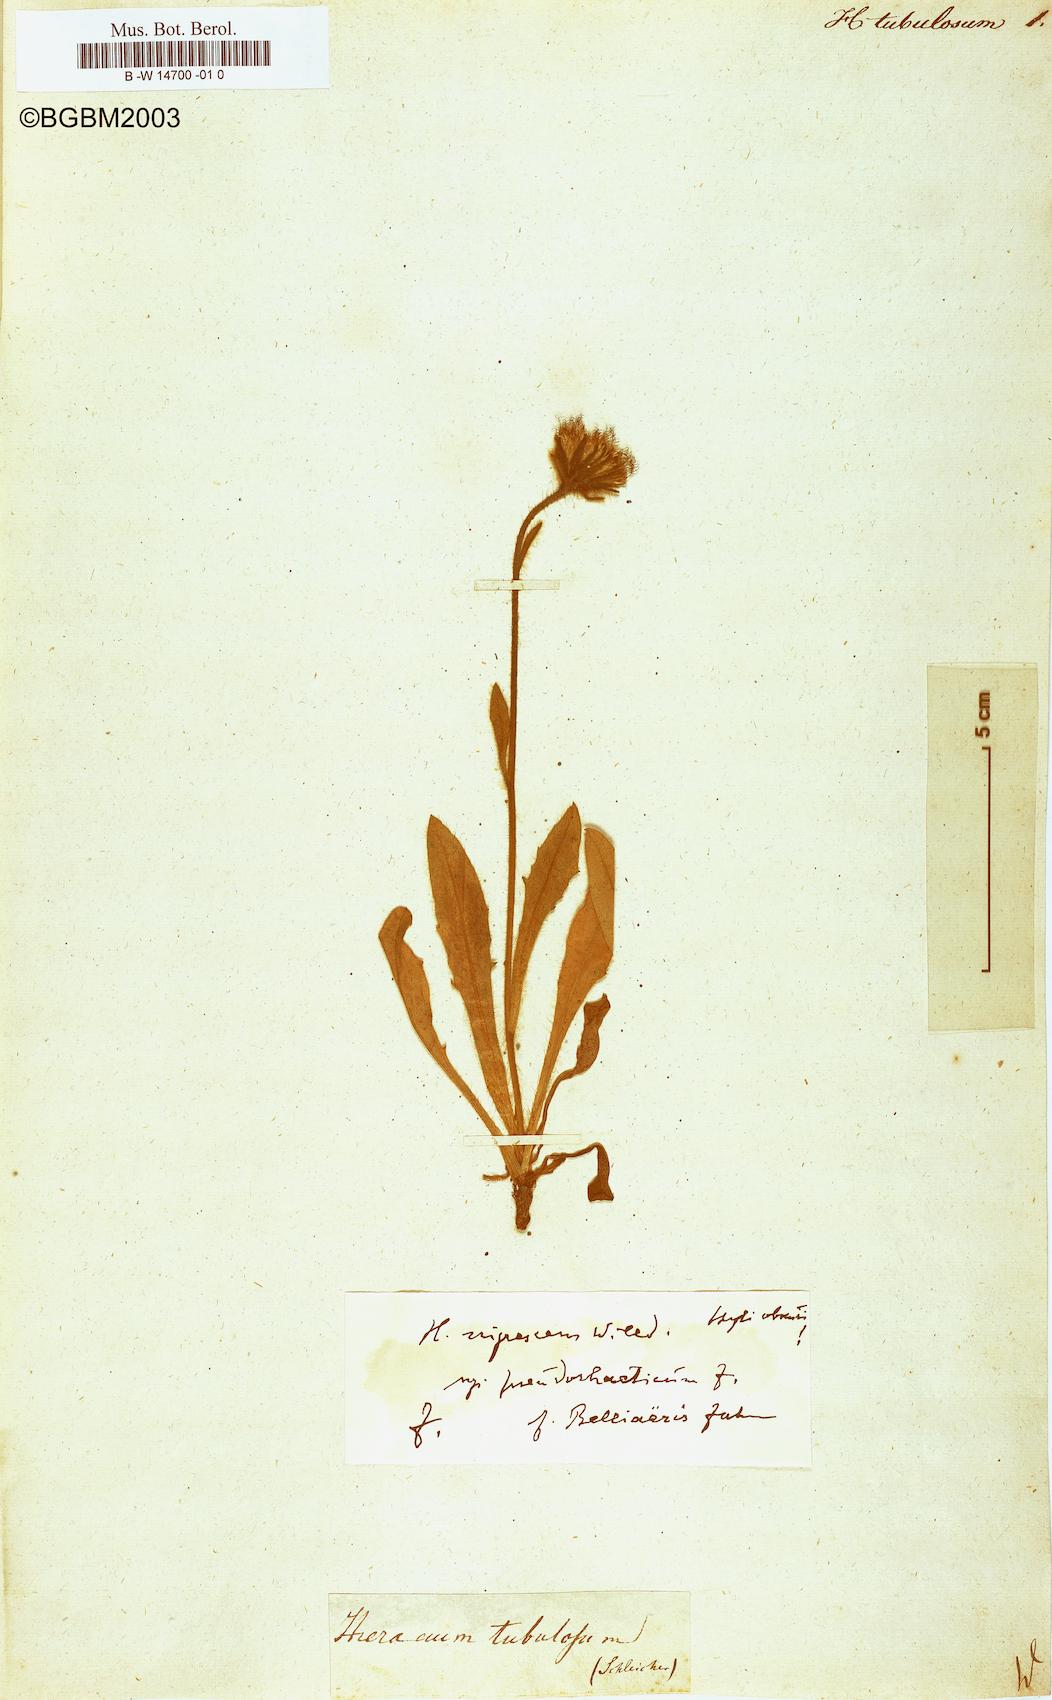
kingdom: Plantae
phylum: Tracheophyta
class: Magnoliopsida
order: Asterales
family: Asteraceae
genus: Hieracium
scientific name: Hieracium tubulosum
